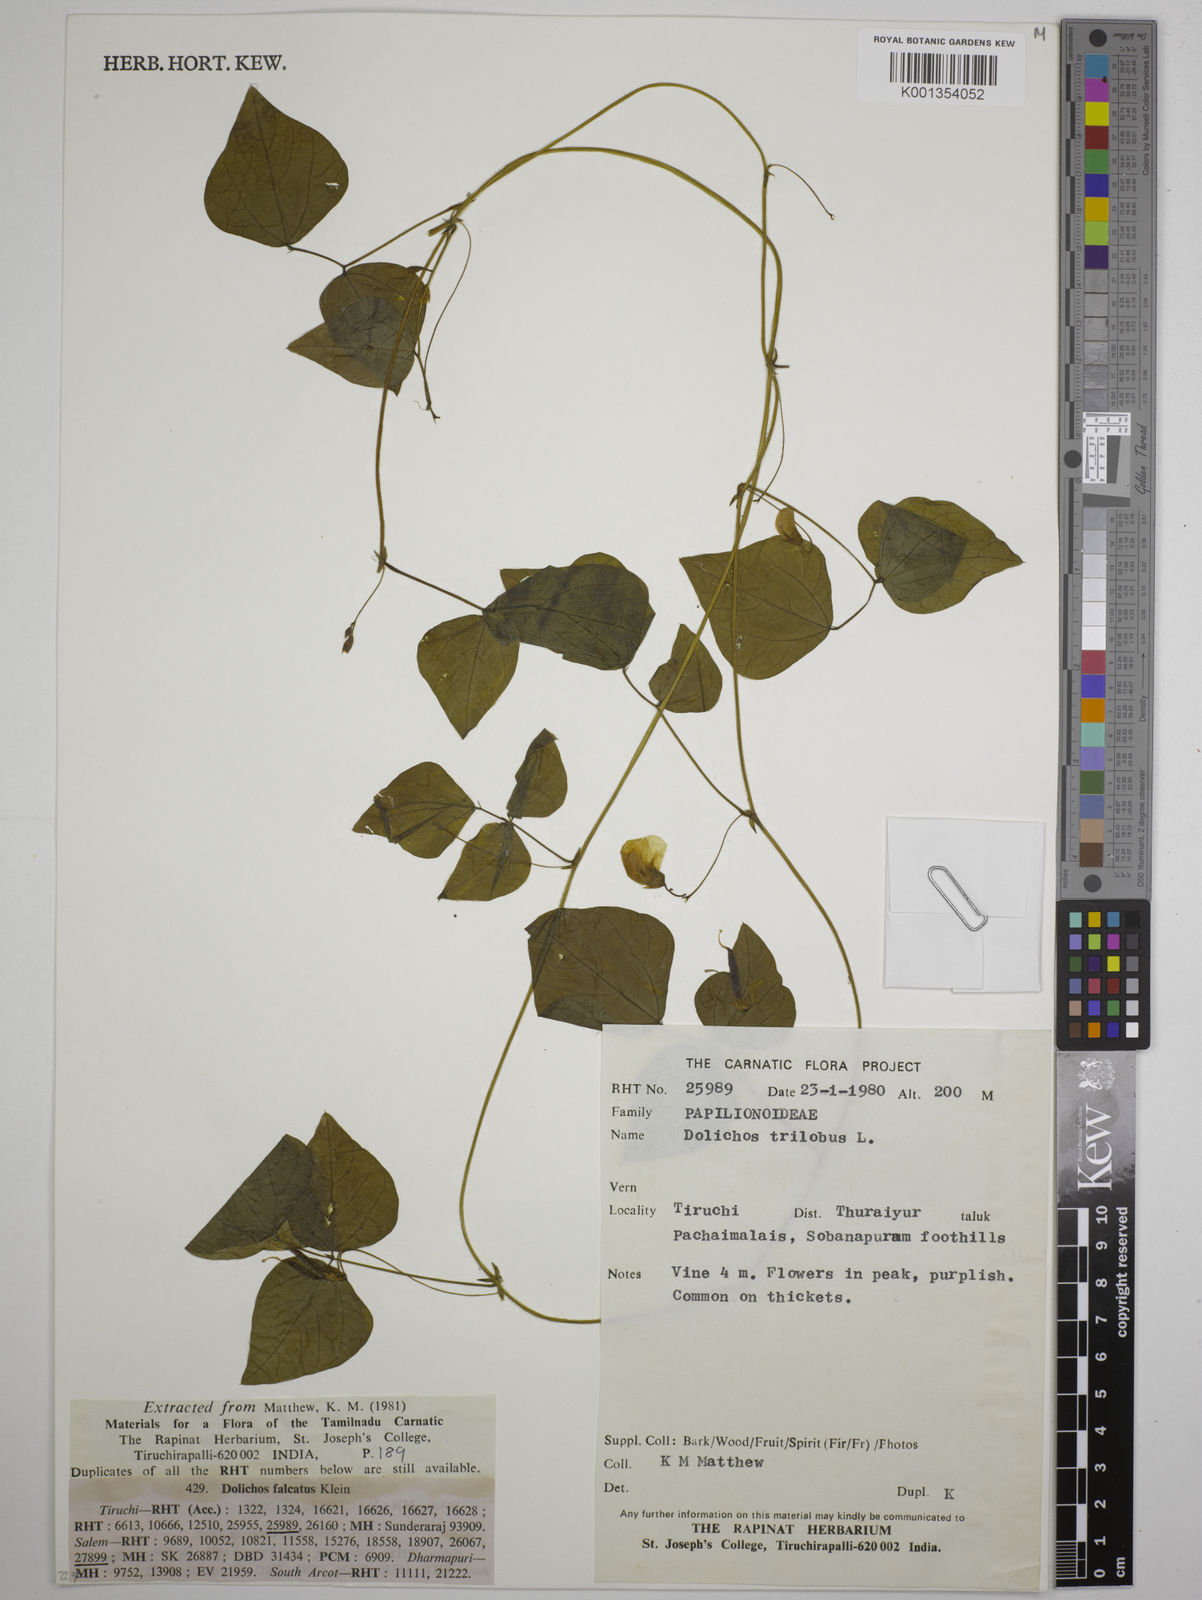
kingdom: Plantae
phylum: Tracheophyta
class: Magnoliopsida
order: Fabales
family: Fabaceae
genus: Dolichos
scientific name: Dolichos
